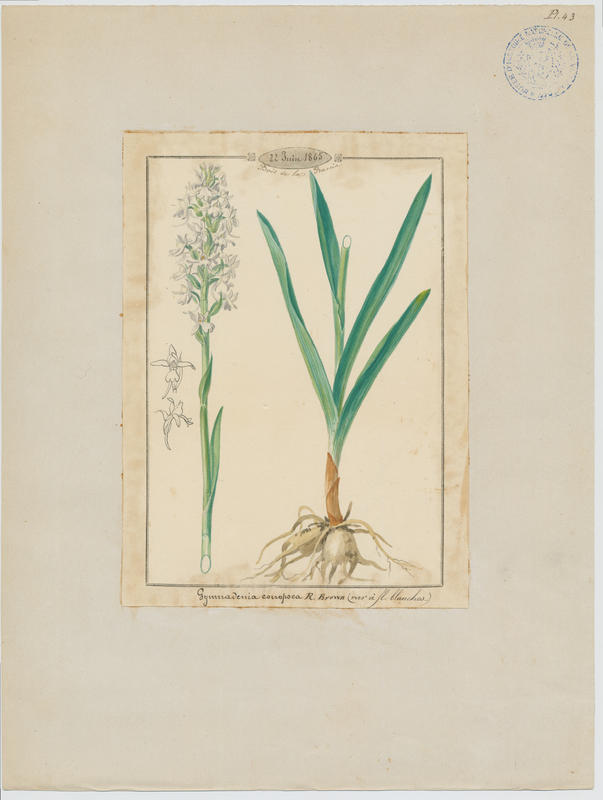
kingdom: Plantae
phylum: Tracheophyta
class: Liliopsida
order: Asparagales
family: Orchidaceae
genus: Gymnadenia
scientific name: Gymnadenia conopsea
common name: Fragrant orchid
